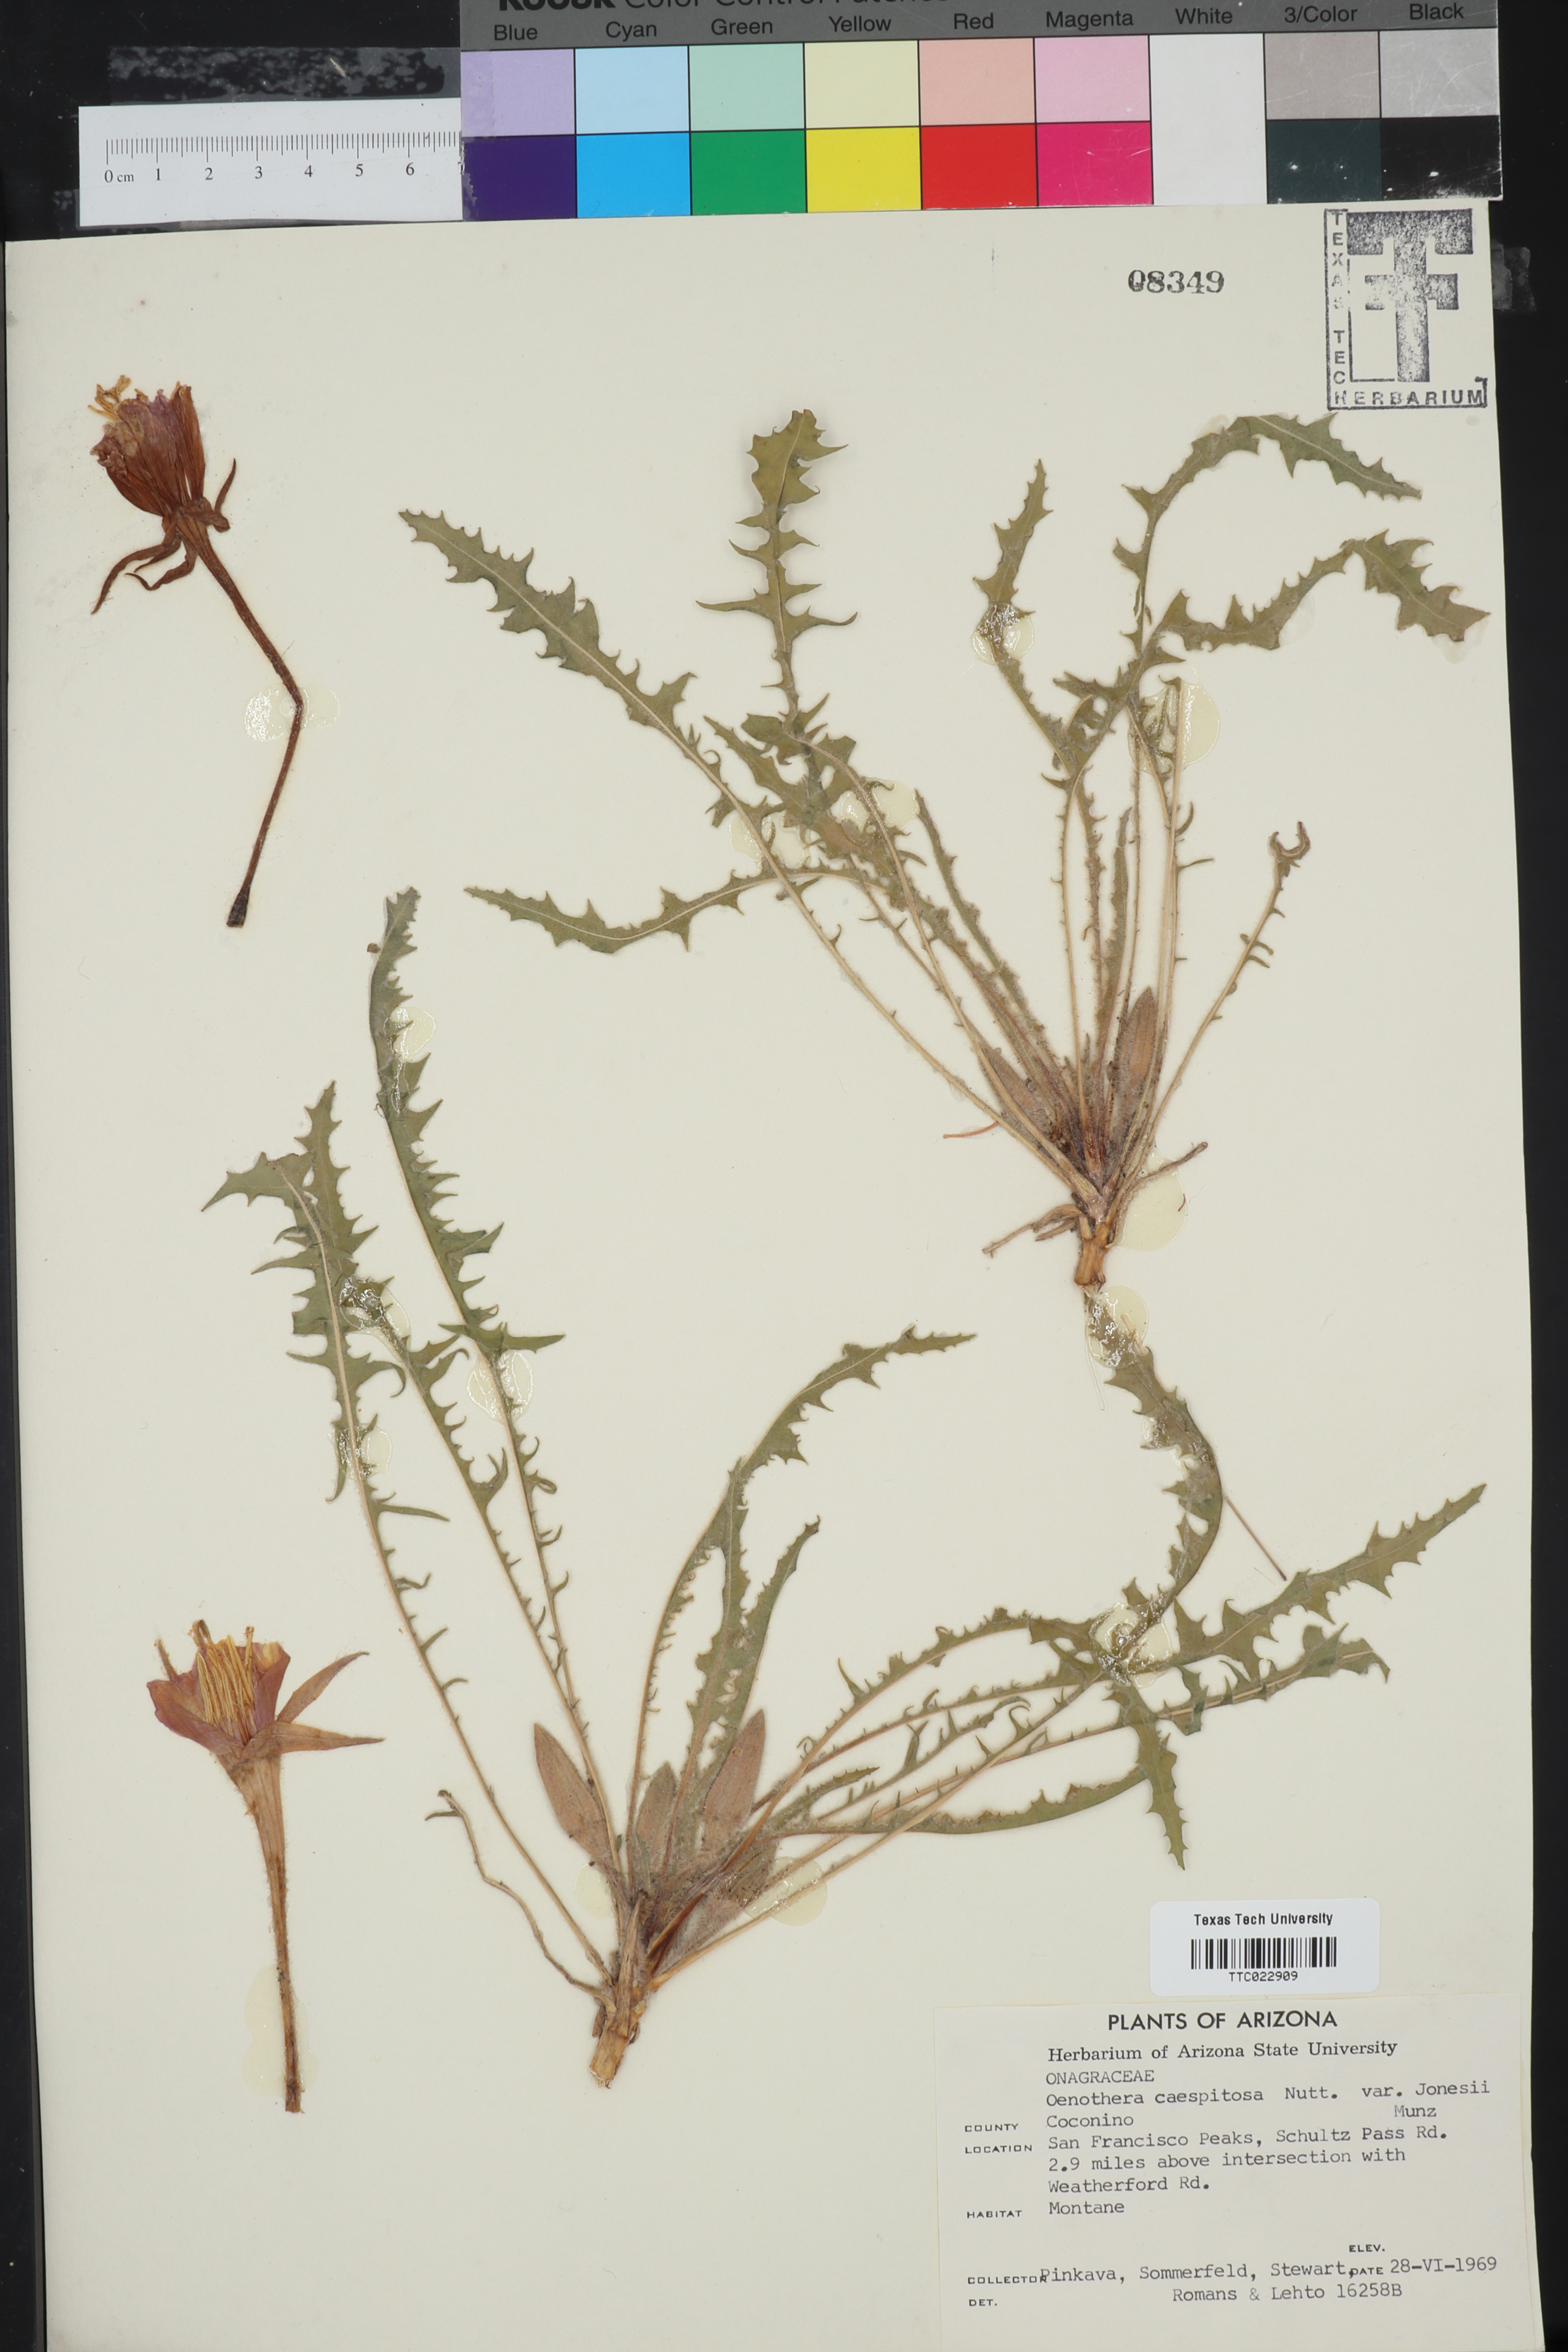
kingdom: Plantae
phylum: Tracheophyta
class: Magnoliopsida
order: Myrtales
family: Onagraceae
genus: Oenothera
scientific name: Oenothera cespitosa
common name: Tufted evening-primrose
